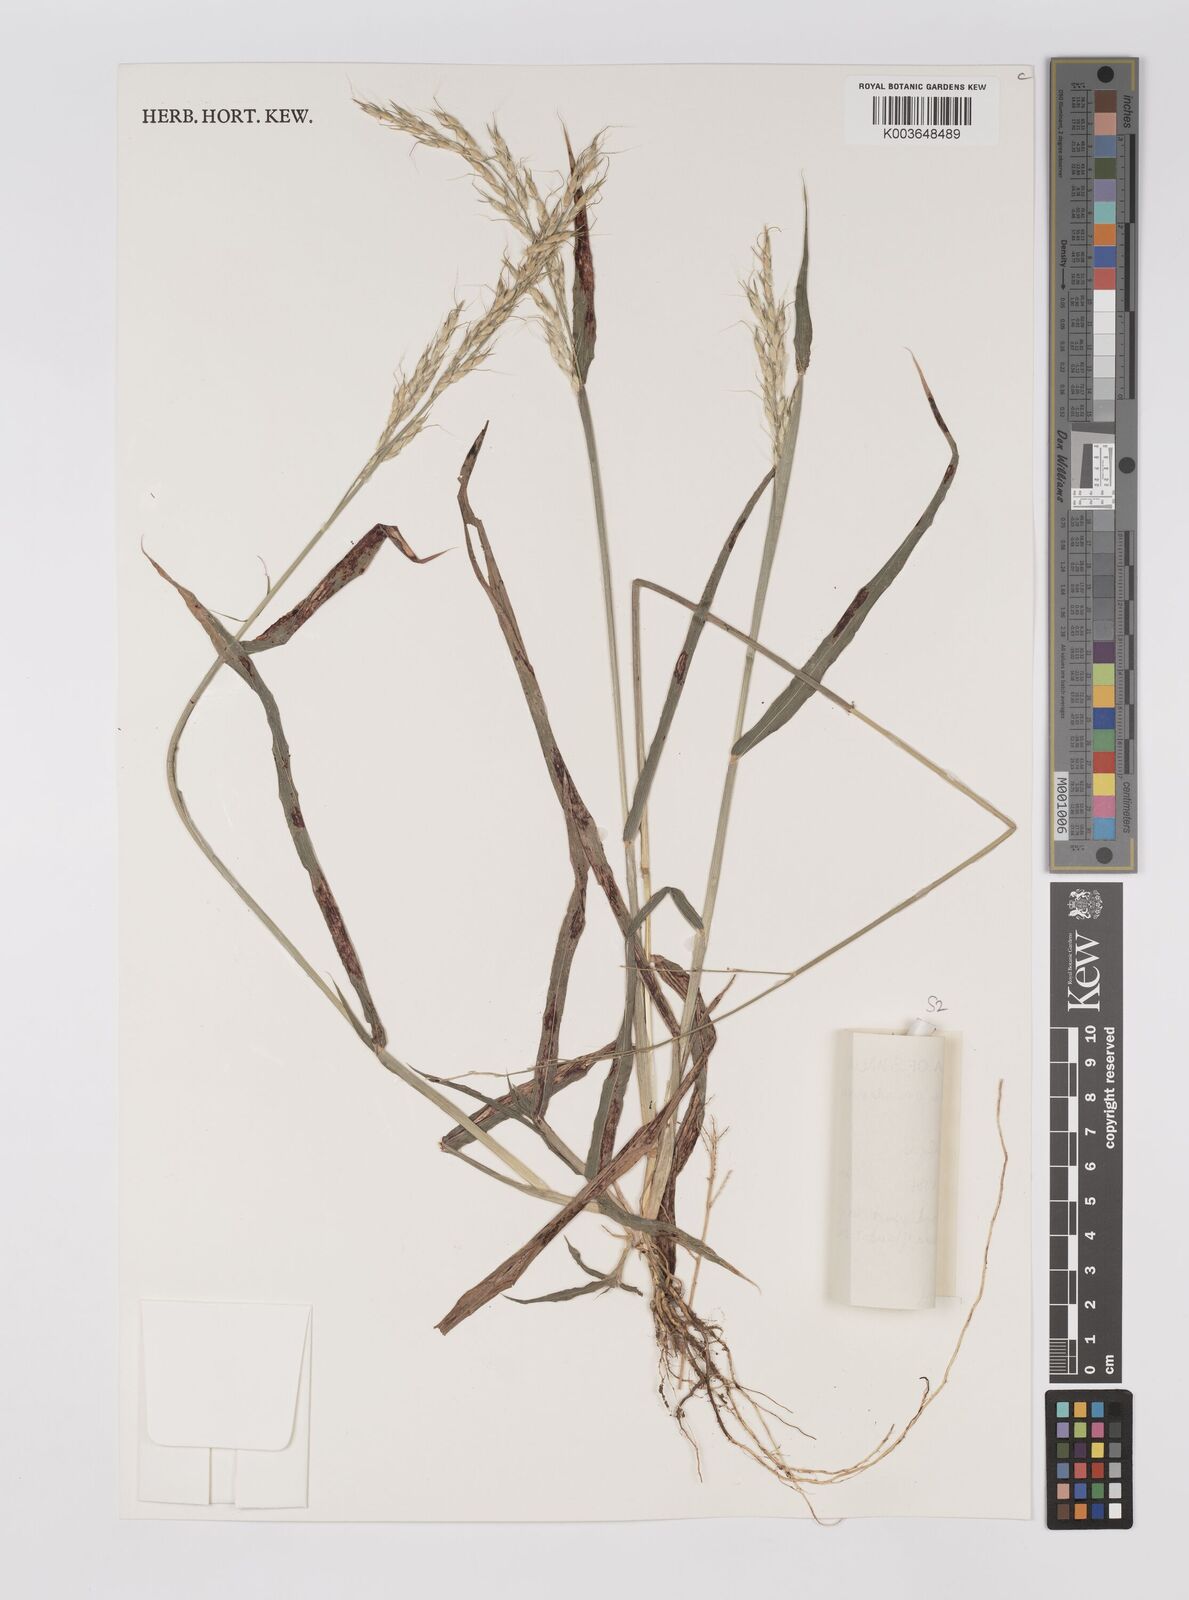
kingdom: Plantae
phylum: Tracheophyta
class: Liliopsida
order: Poales
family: Poaceae
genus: Sorghum
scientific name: Sorghum arundinaceum
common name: Sorghum
